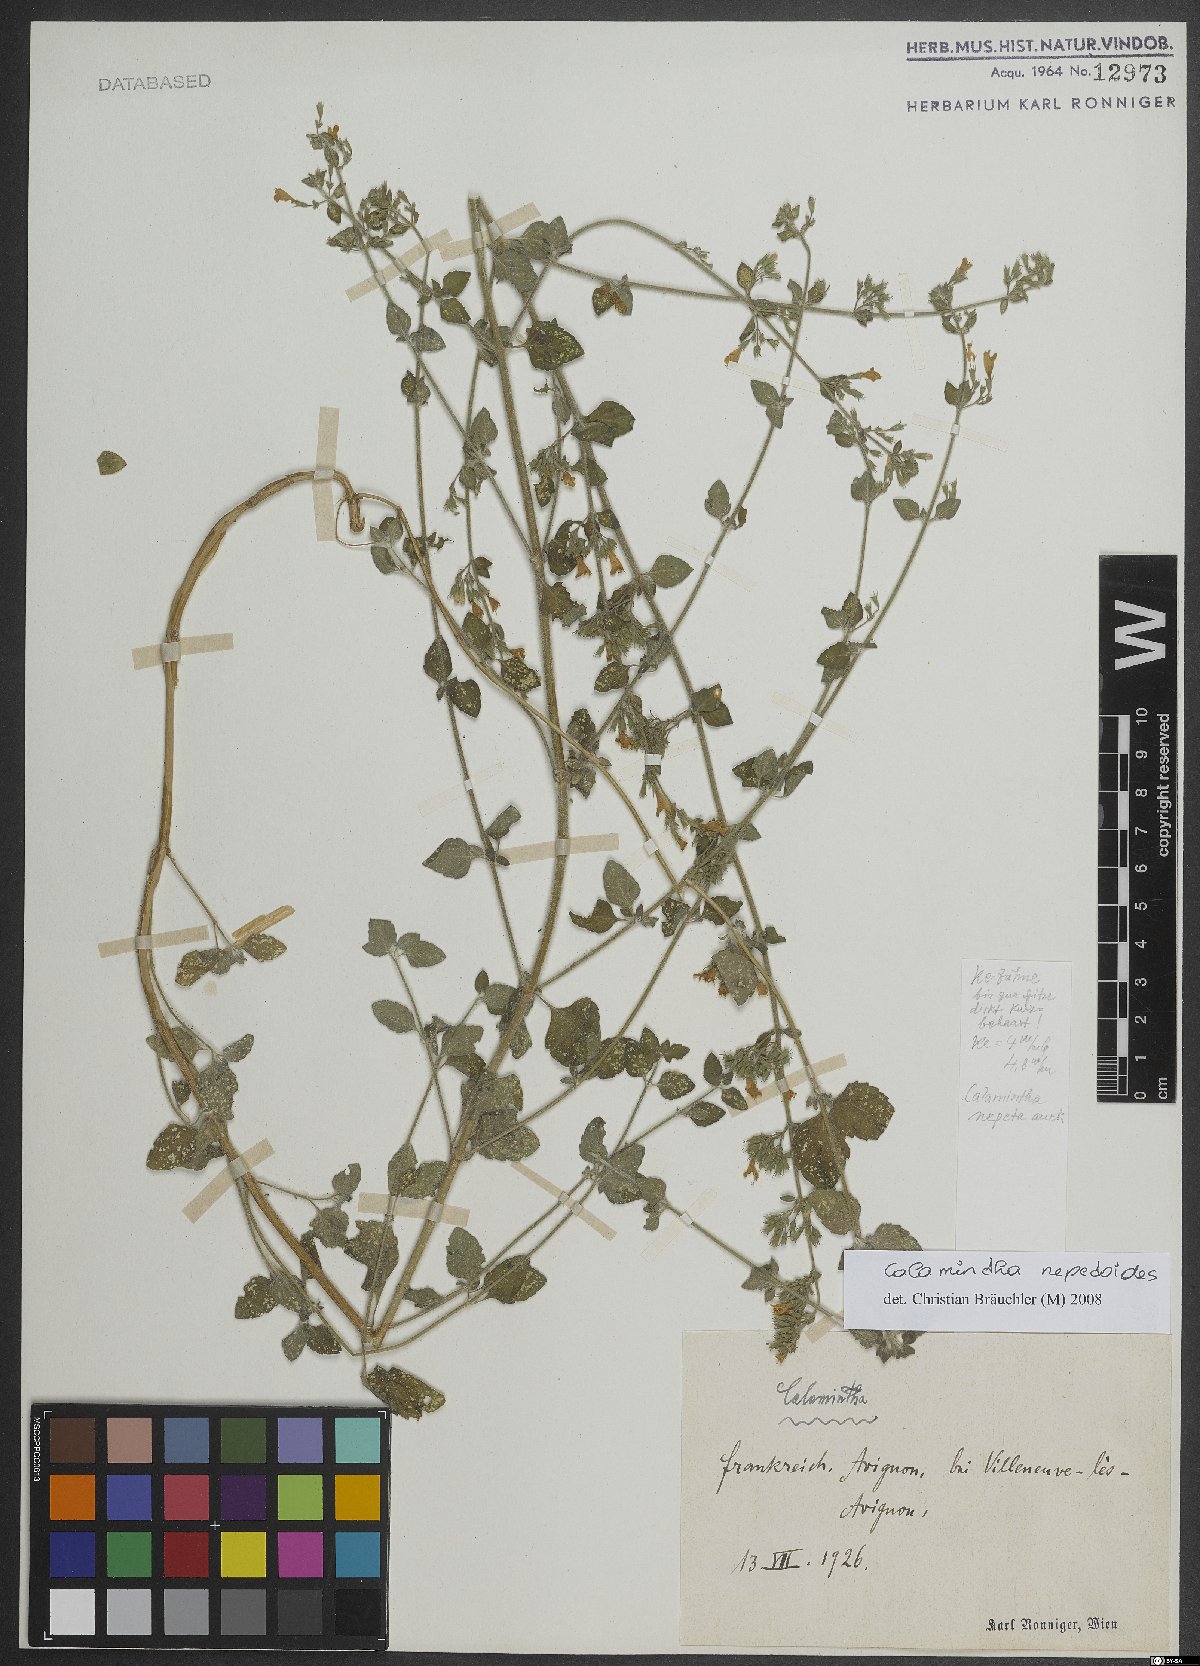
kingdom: Plantae
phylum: Tracheophyta
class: Magnoliopsida
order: Lamiales
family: Lamiaceae
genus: Clinopodium
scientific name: Clinopodium nepeta
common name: Lesser calamint
